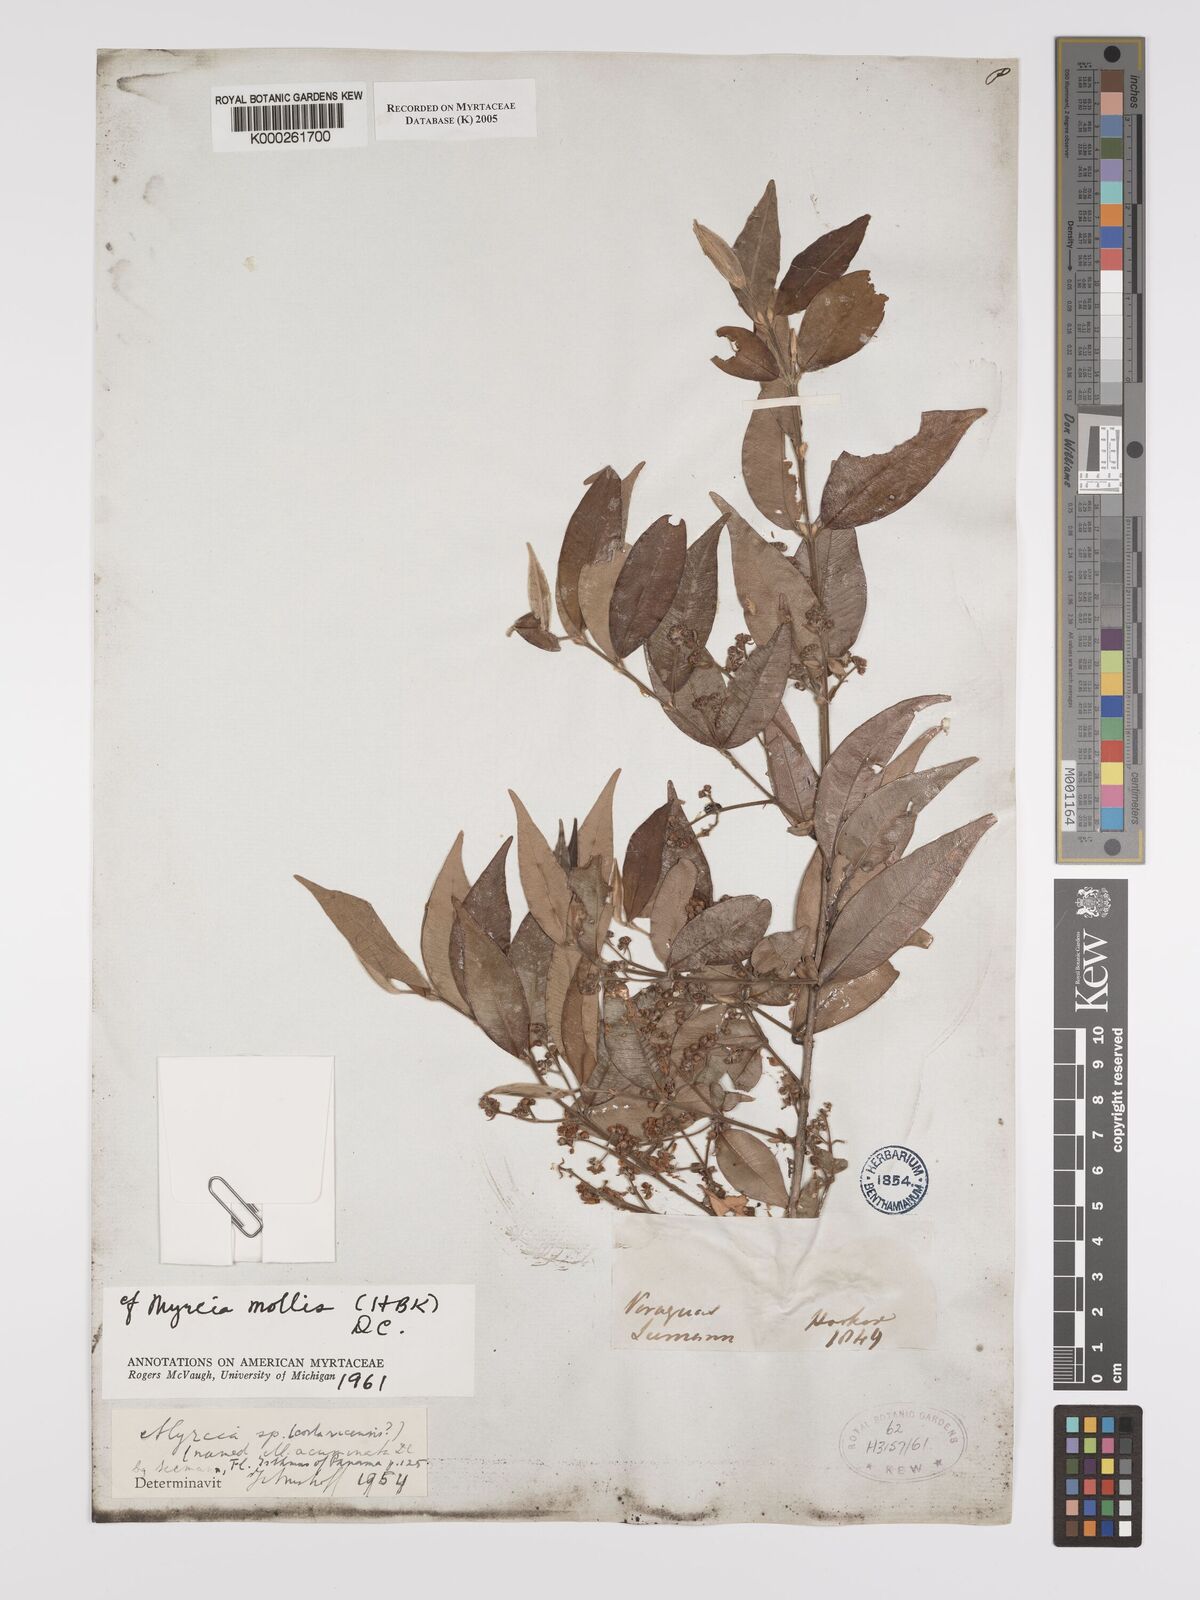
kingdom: Plantae
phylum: Tracheophyta
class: Magnoliopsida
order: Myrtales
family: Myrtaceae
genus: Myrcia
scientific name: Myrcia mollis
